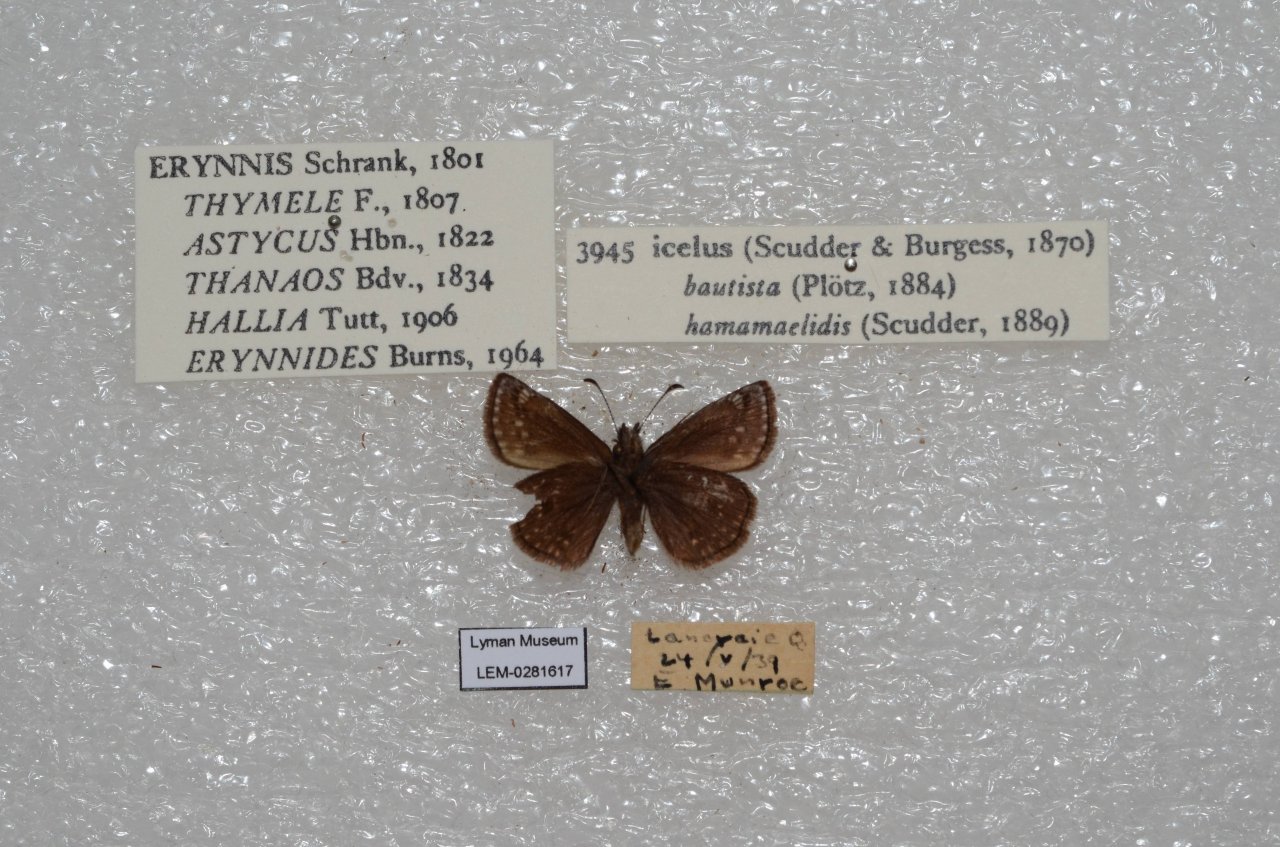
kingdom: Animalia
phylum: Arthropoda
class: Insecta
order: Lepidoptera
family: Hesperiidae
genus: Erynnis
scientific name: Erynnis icelus
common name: Dreamy Duskywing
